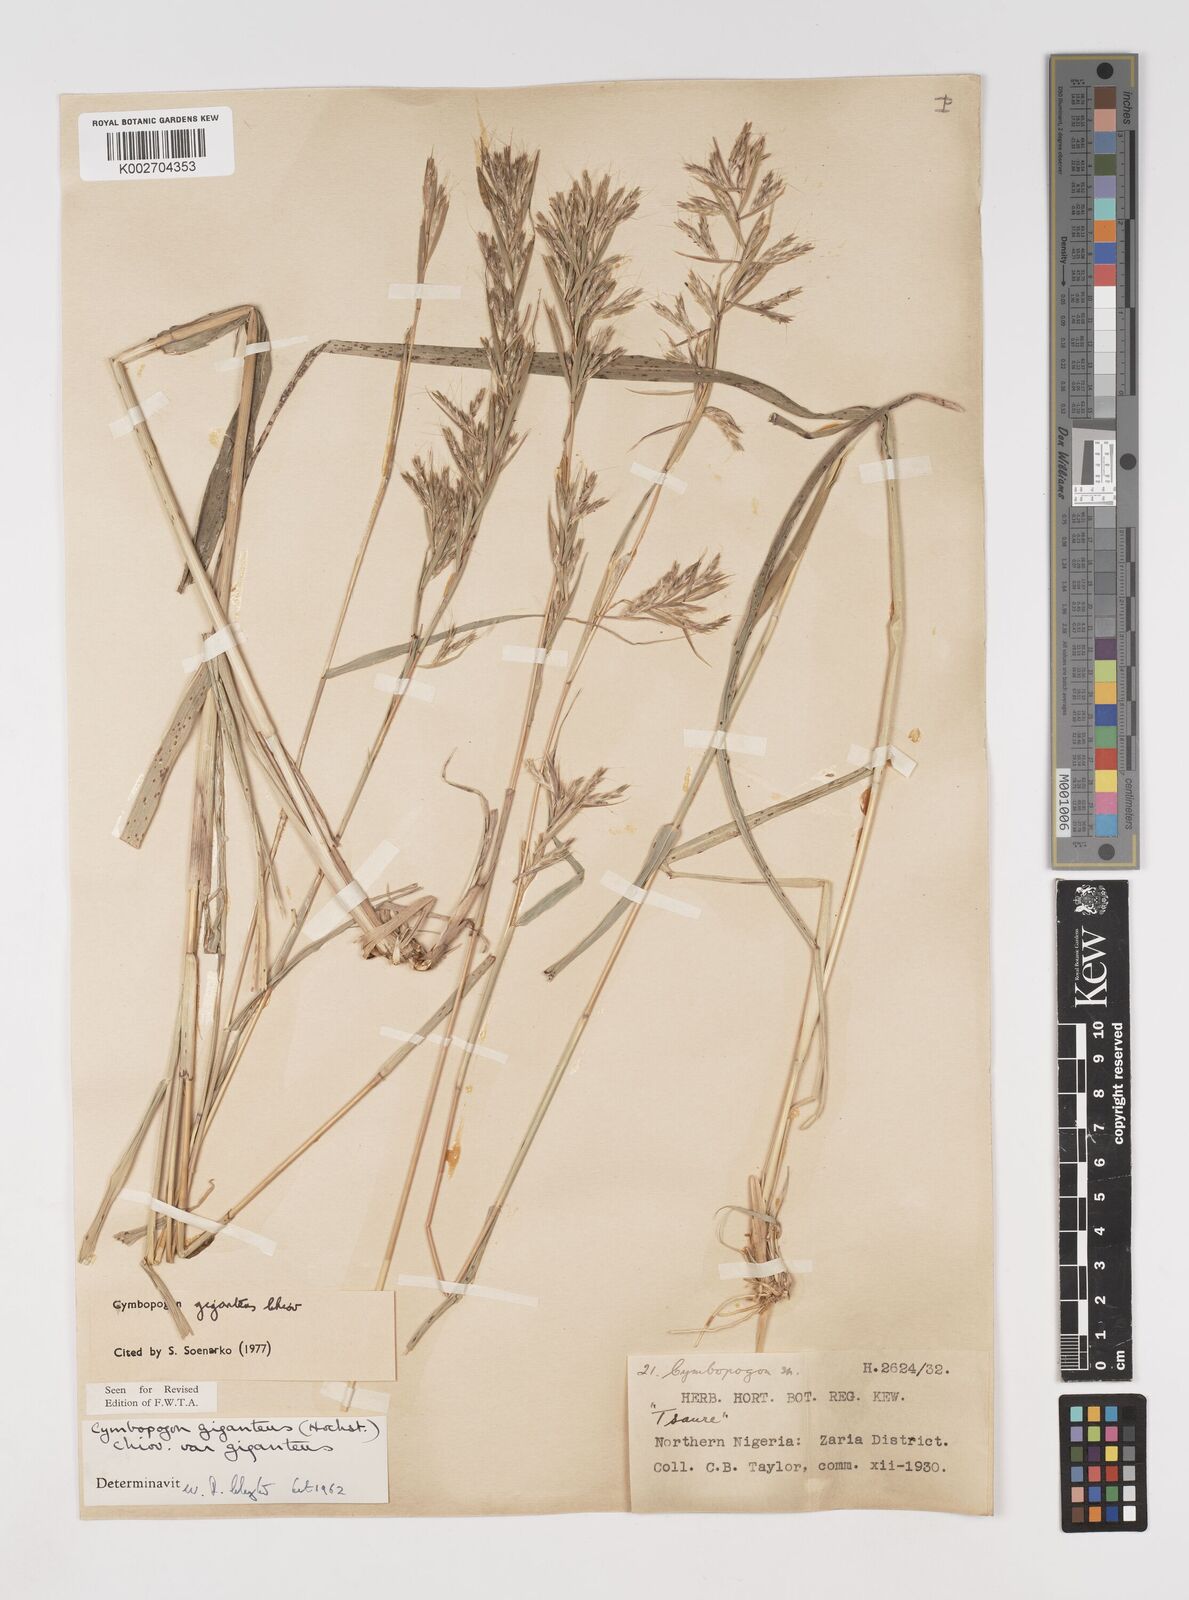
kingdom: Plantae
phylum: Tracheophyta
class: Liliopsida
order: Poales
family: Poaceae
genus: Cymbopogon
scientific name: Cymbopogon giganteus
